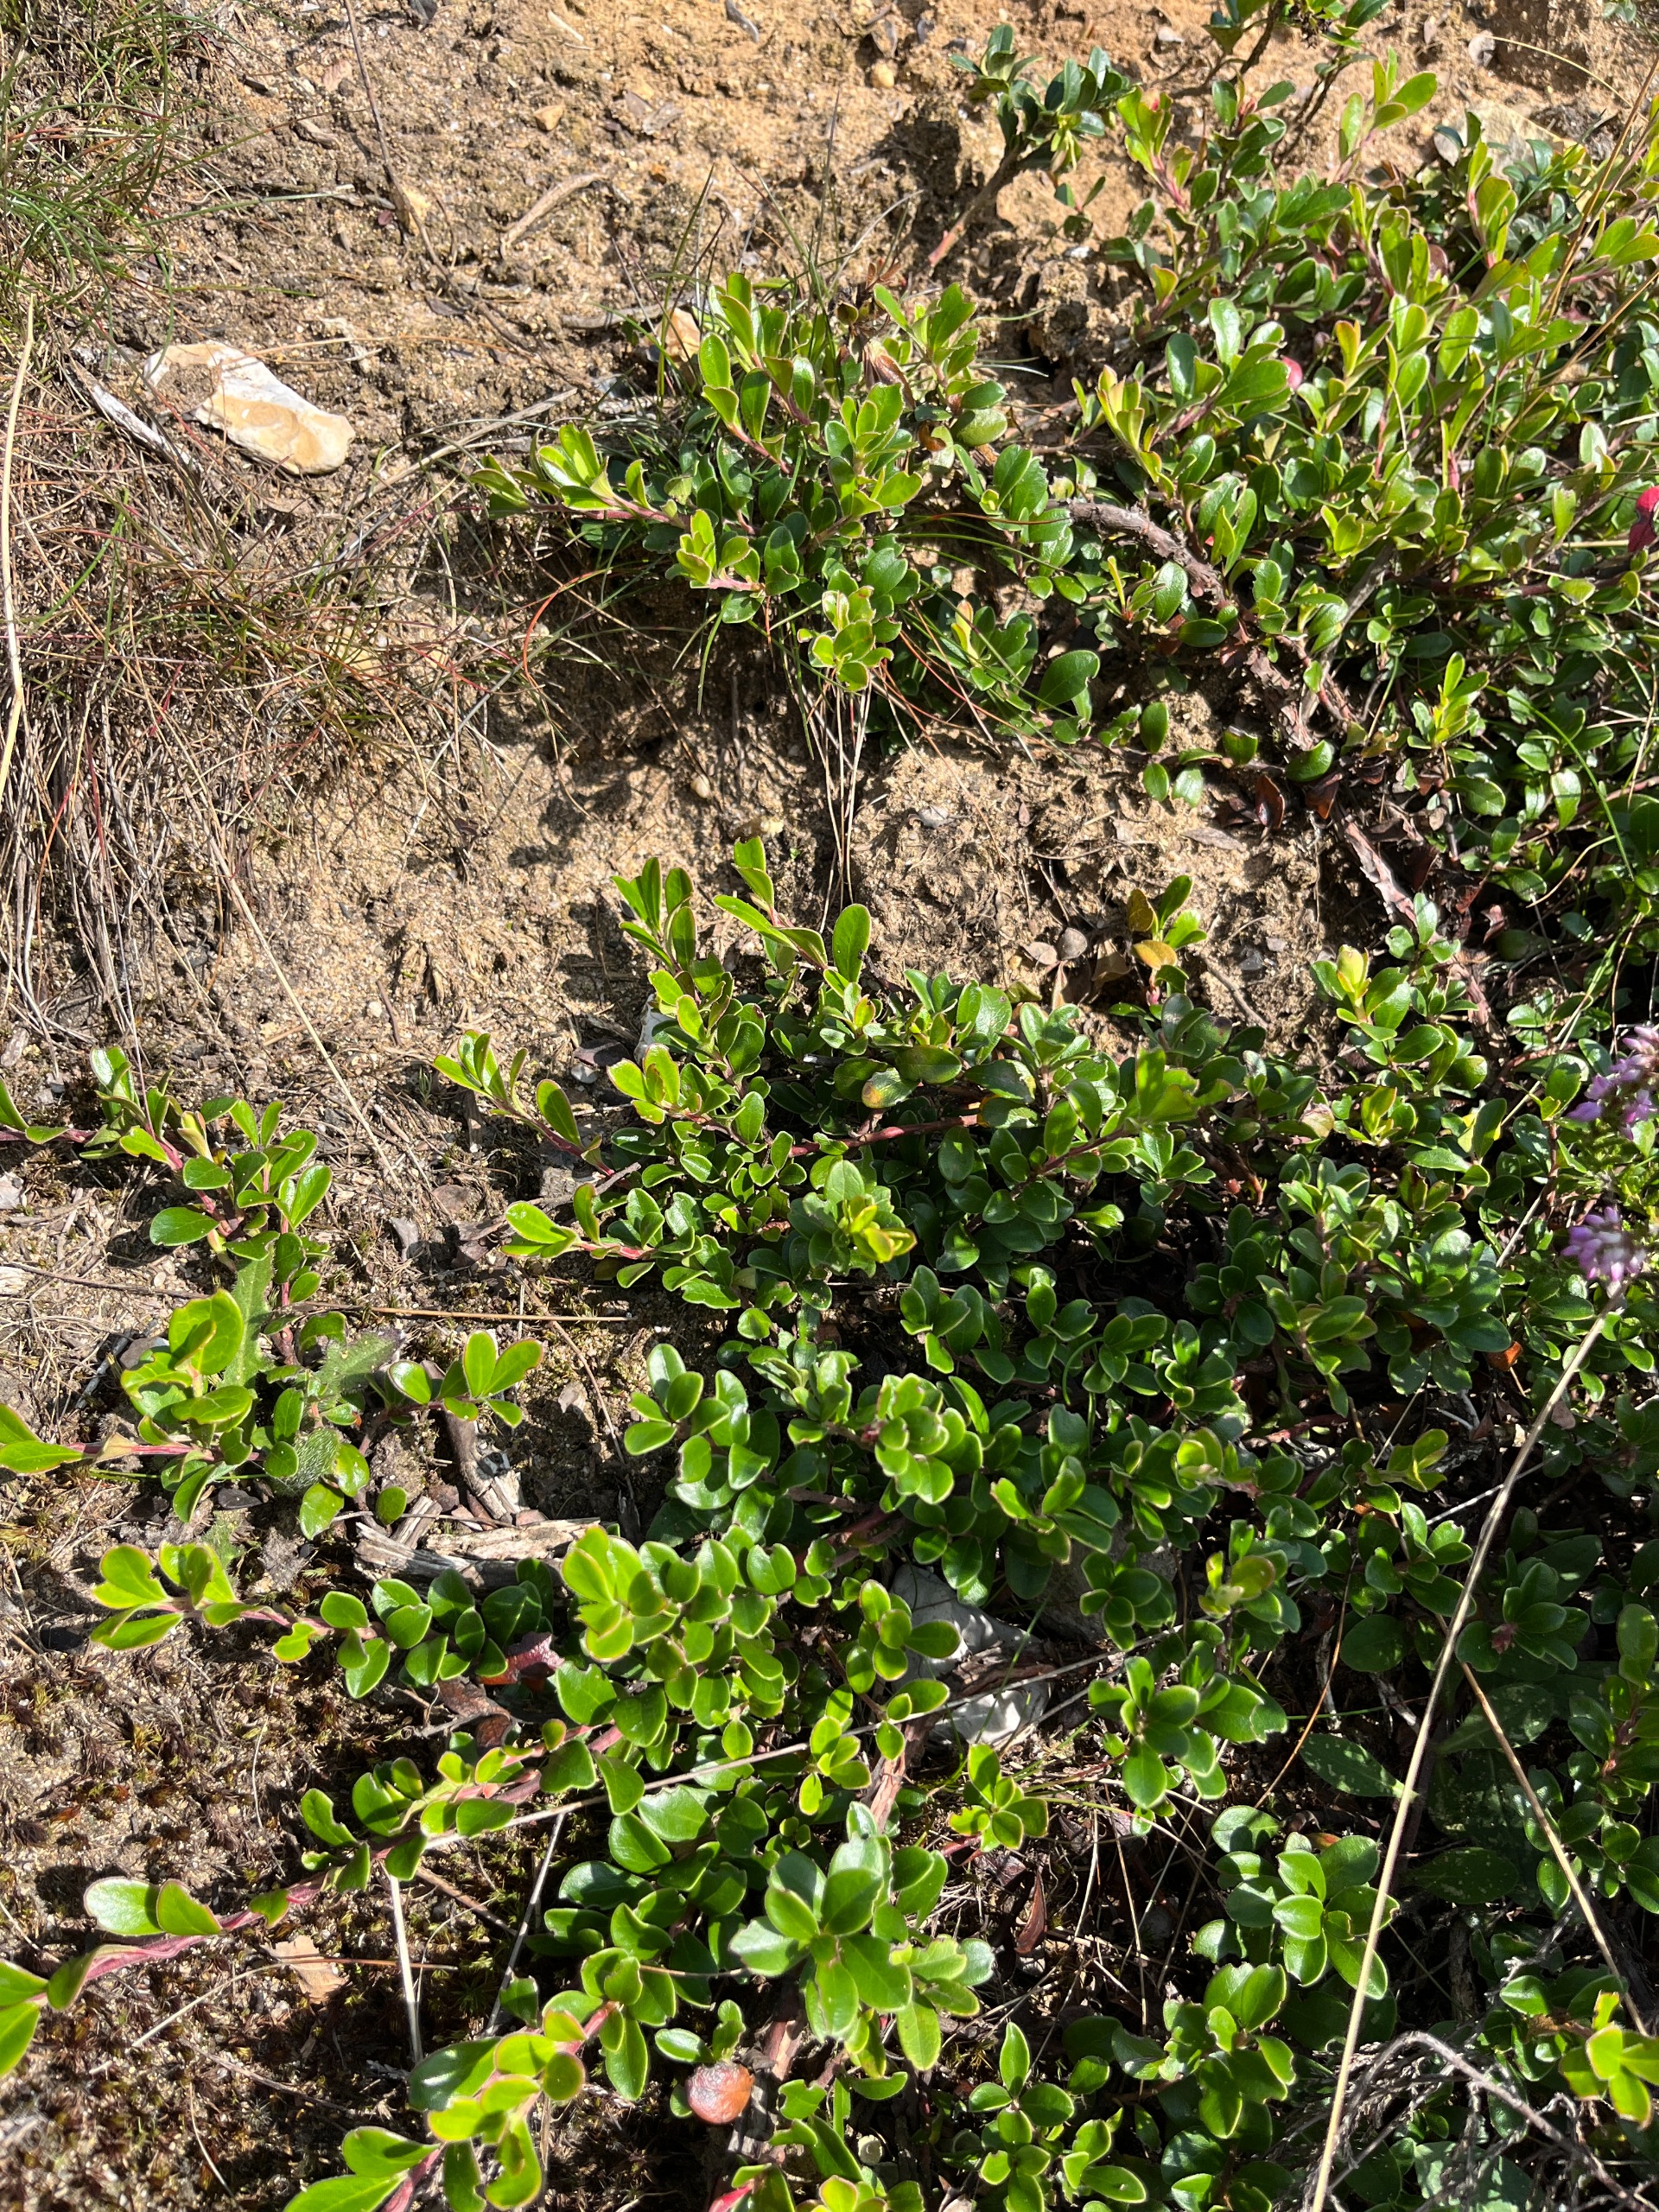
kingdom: Plantae
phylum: Tracheophyta
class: Magnoliopsida
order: Ericales
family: Ericaceae
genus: Arctostaphylos
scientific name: Arctostaphylos uva-ursi
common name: Hede-melbærris
